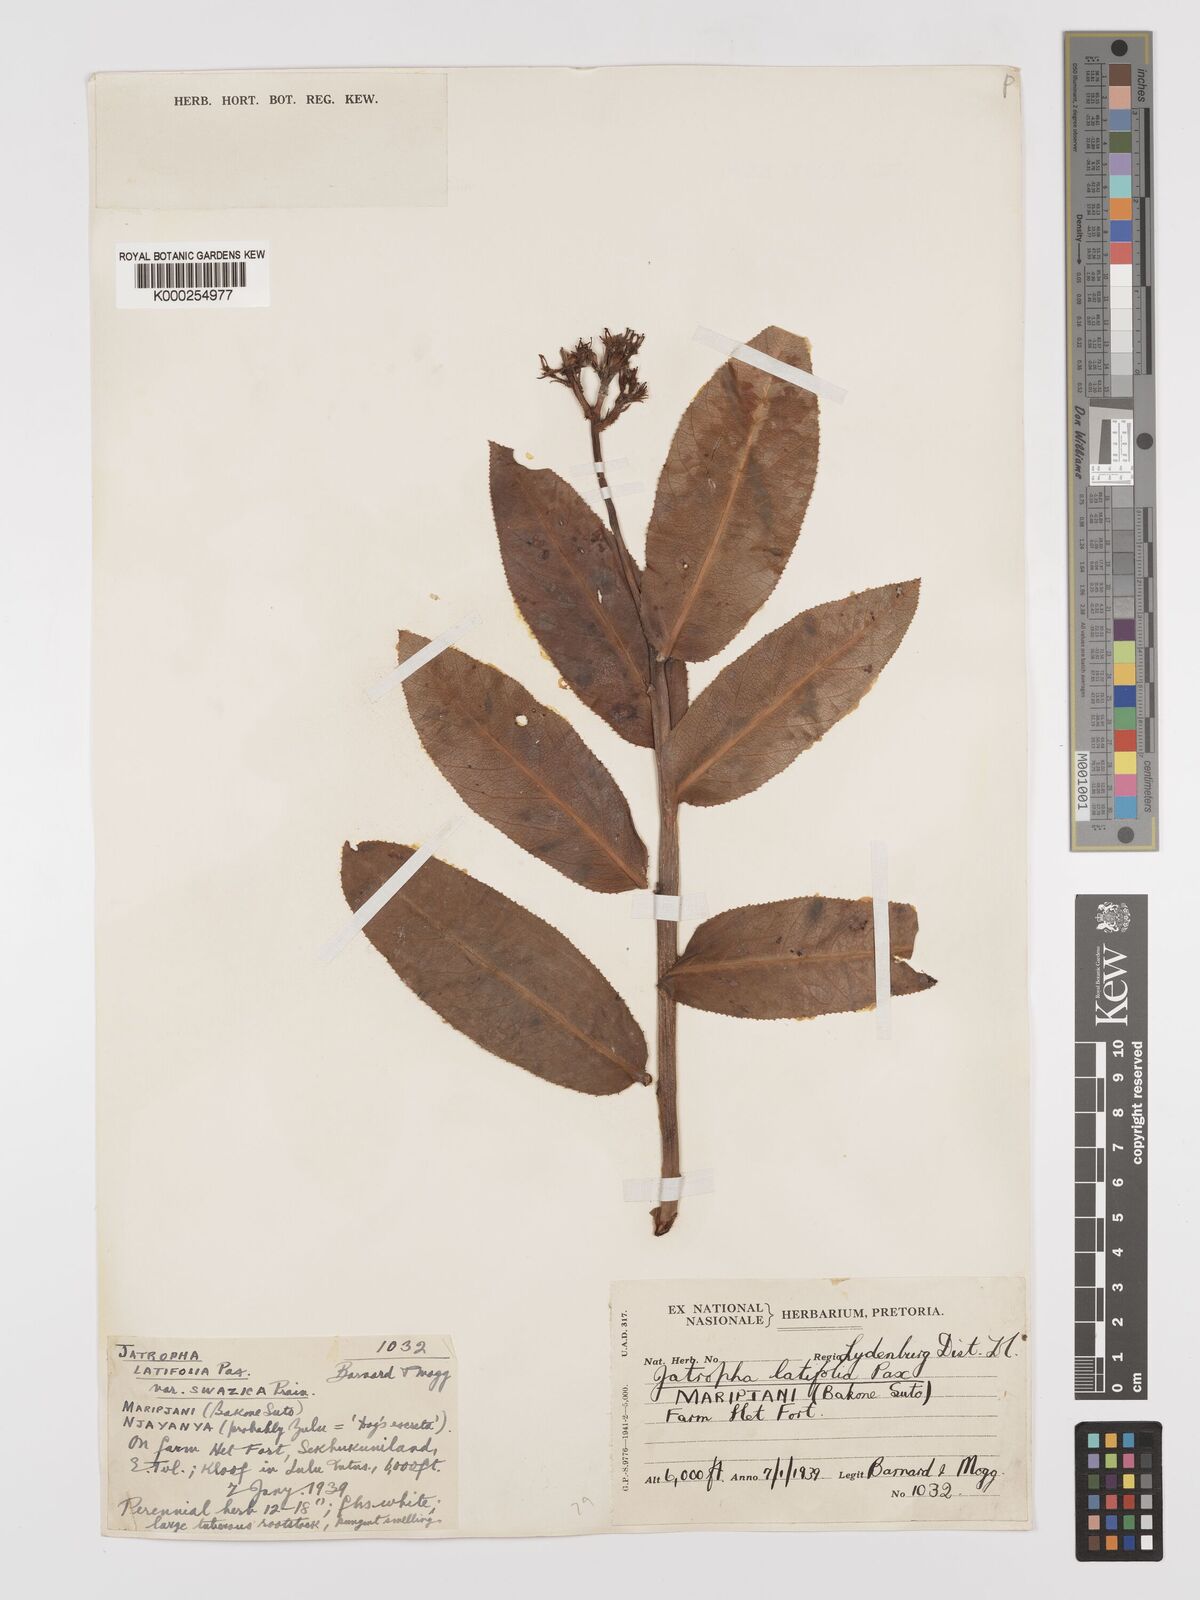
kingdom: Plantae
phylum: Tracheophyta
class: Magnoliopsida
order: Malpighiales
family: Euphorbiaceae
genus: Jatropha
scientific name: Jatropha latifolia
